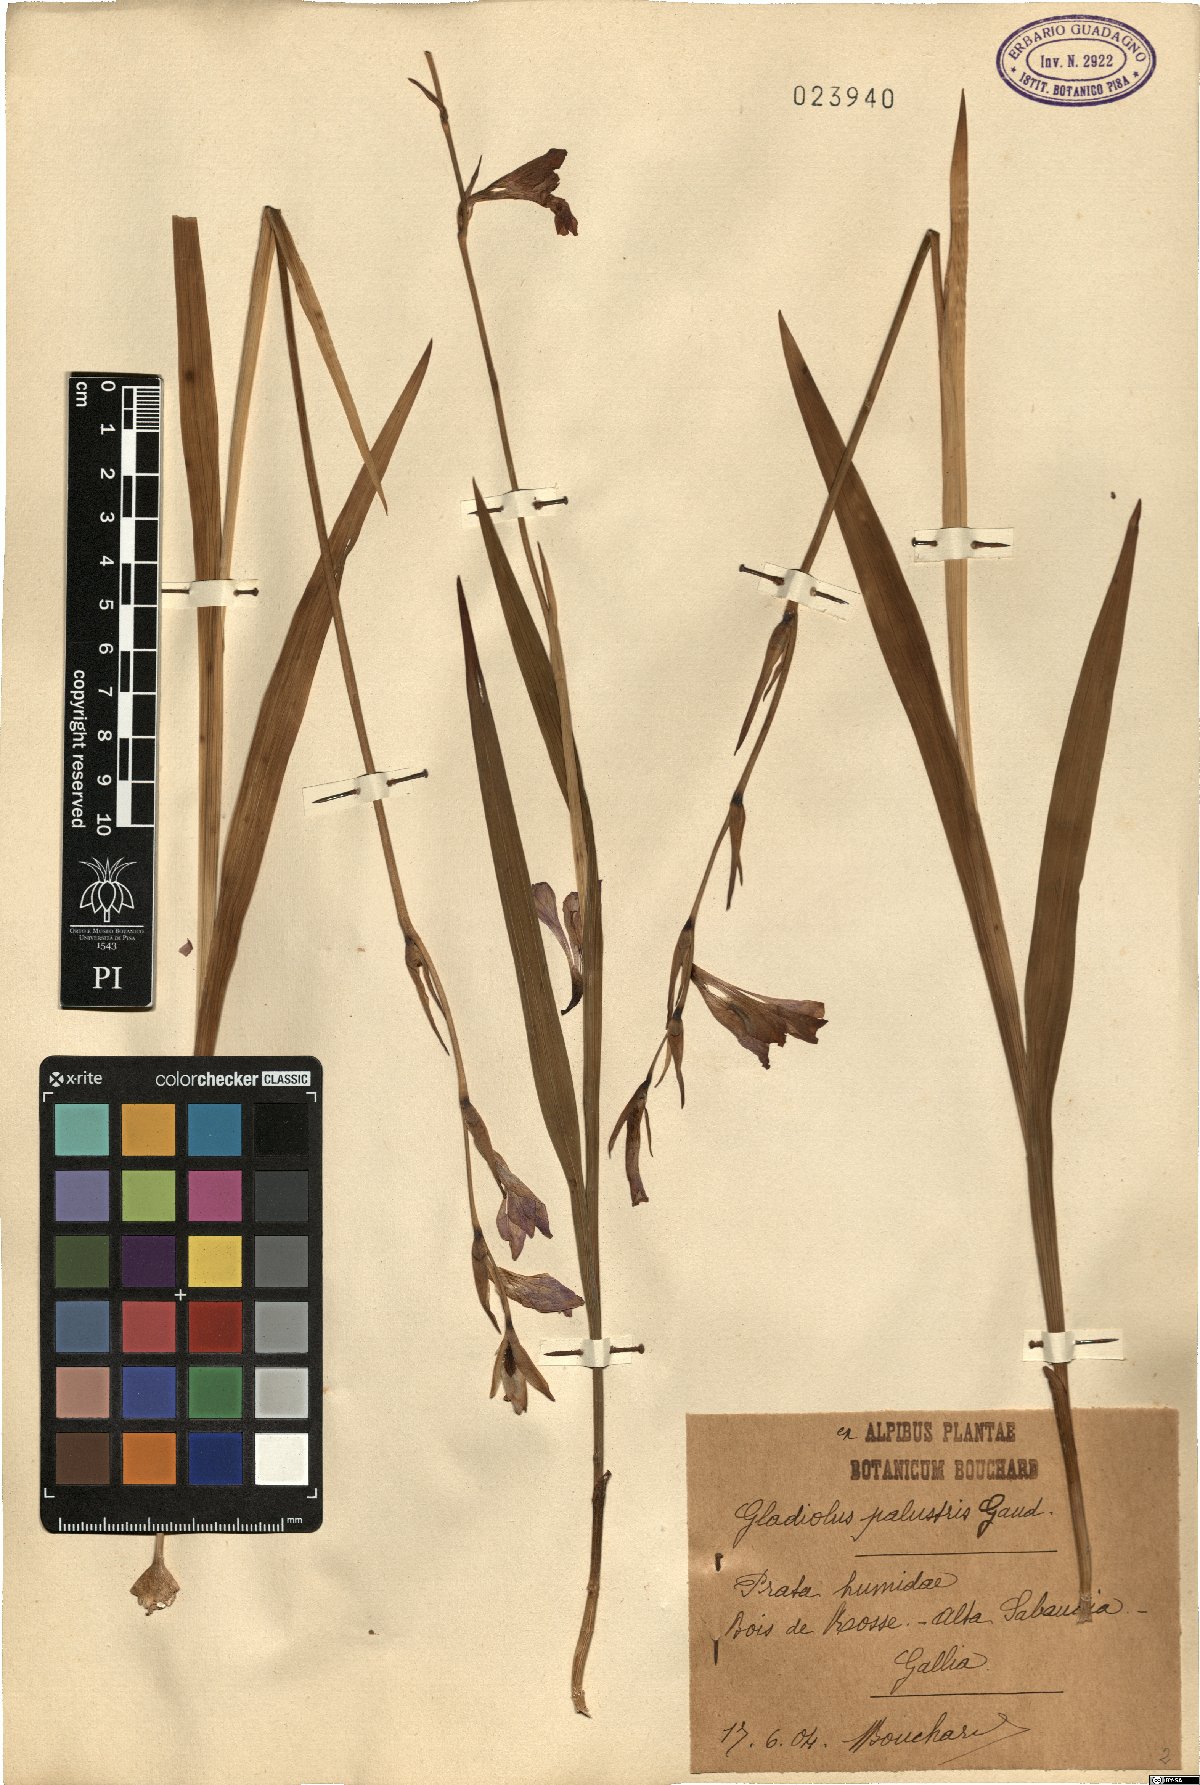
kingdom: Plantae
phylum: Tracheophyta
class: Liliopsida
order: Asparagales
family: Iridaceae
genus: Gladiolus
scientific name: Gladiolus palustris
